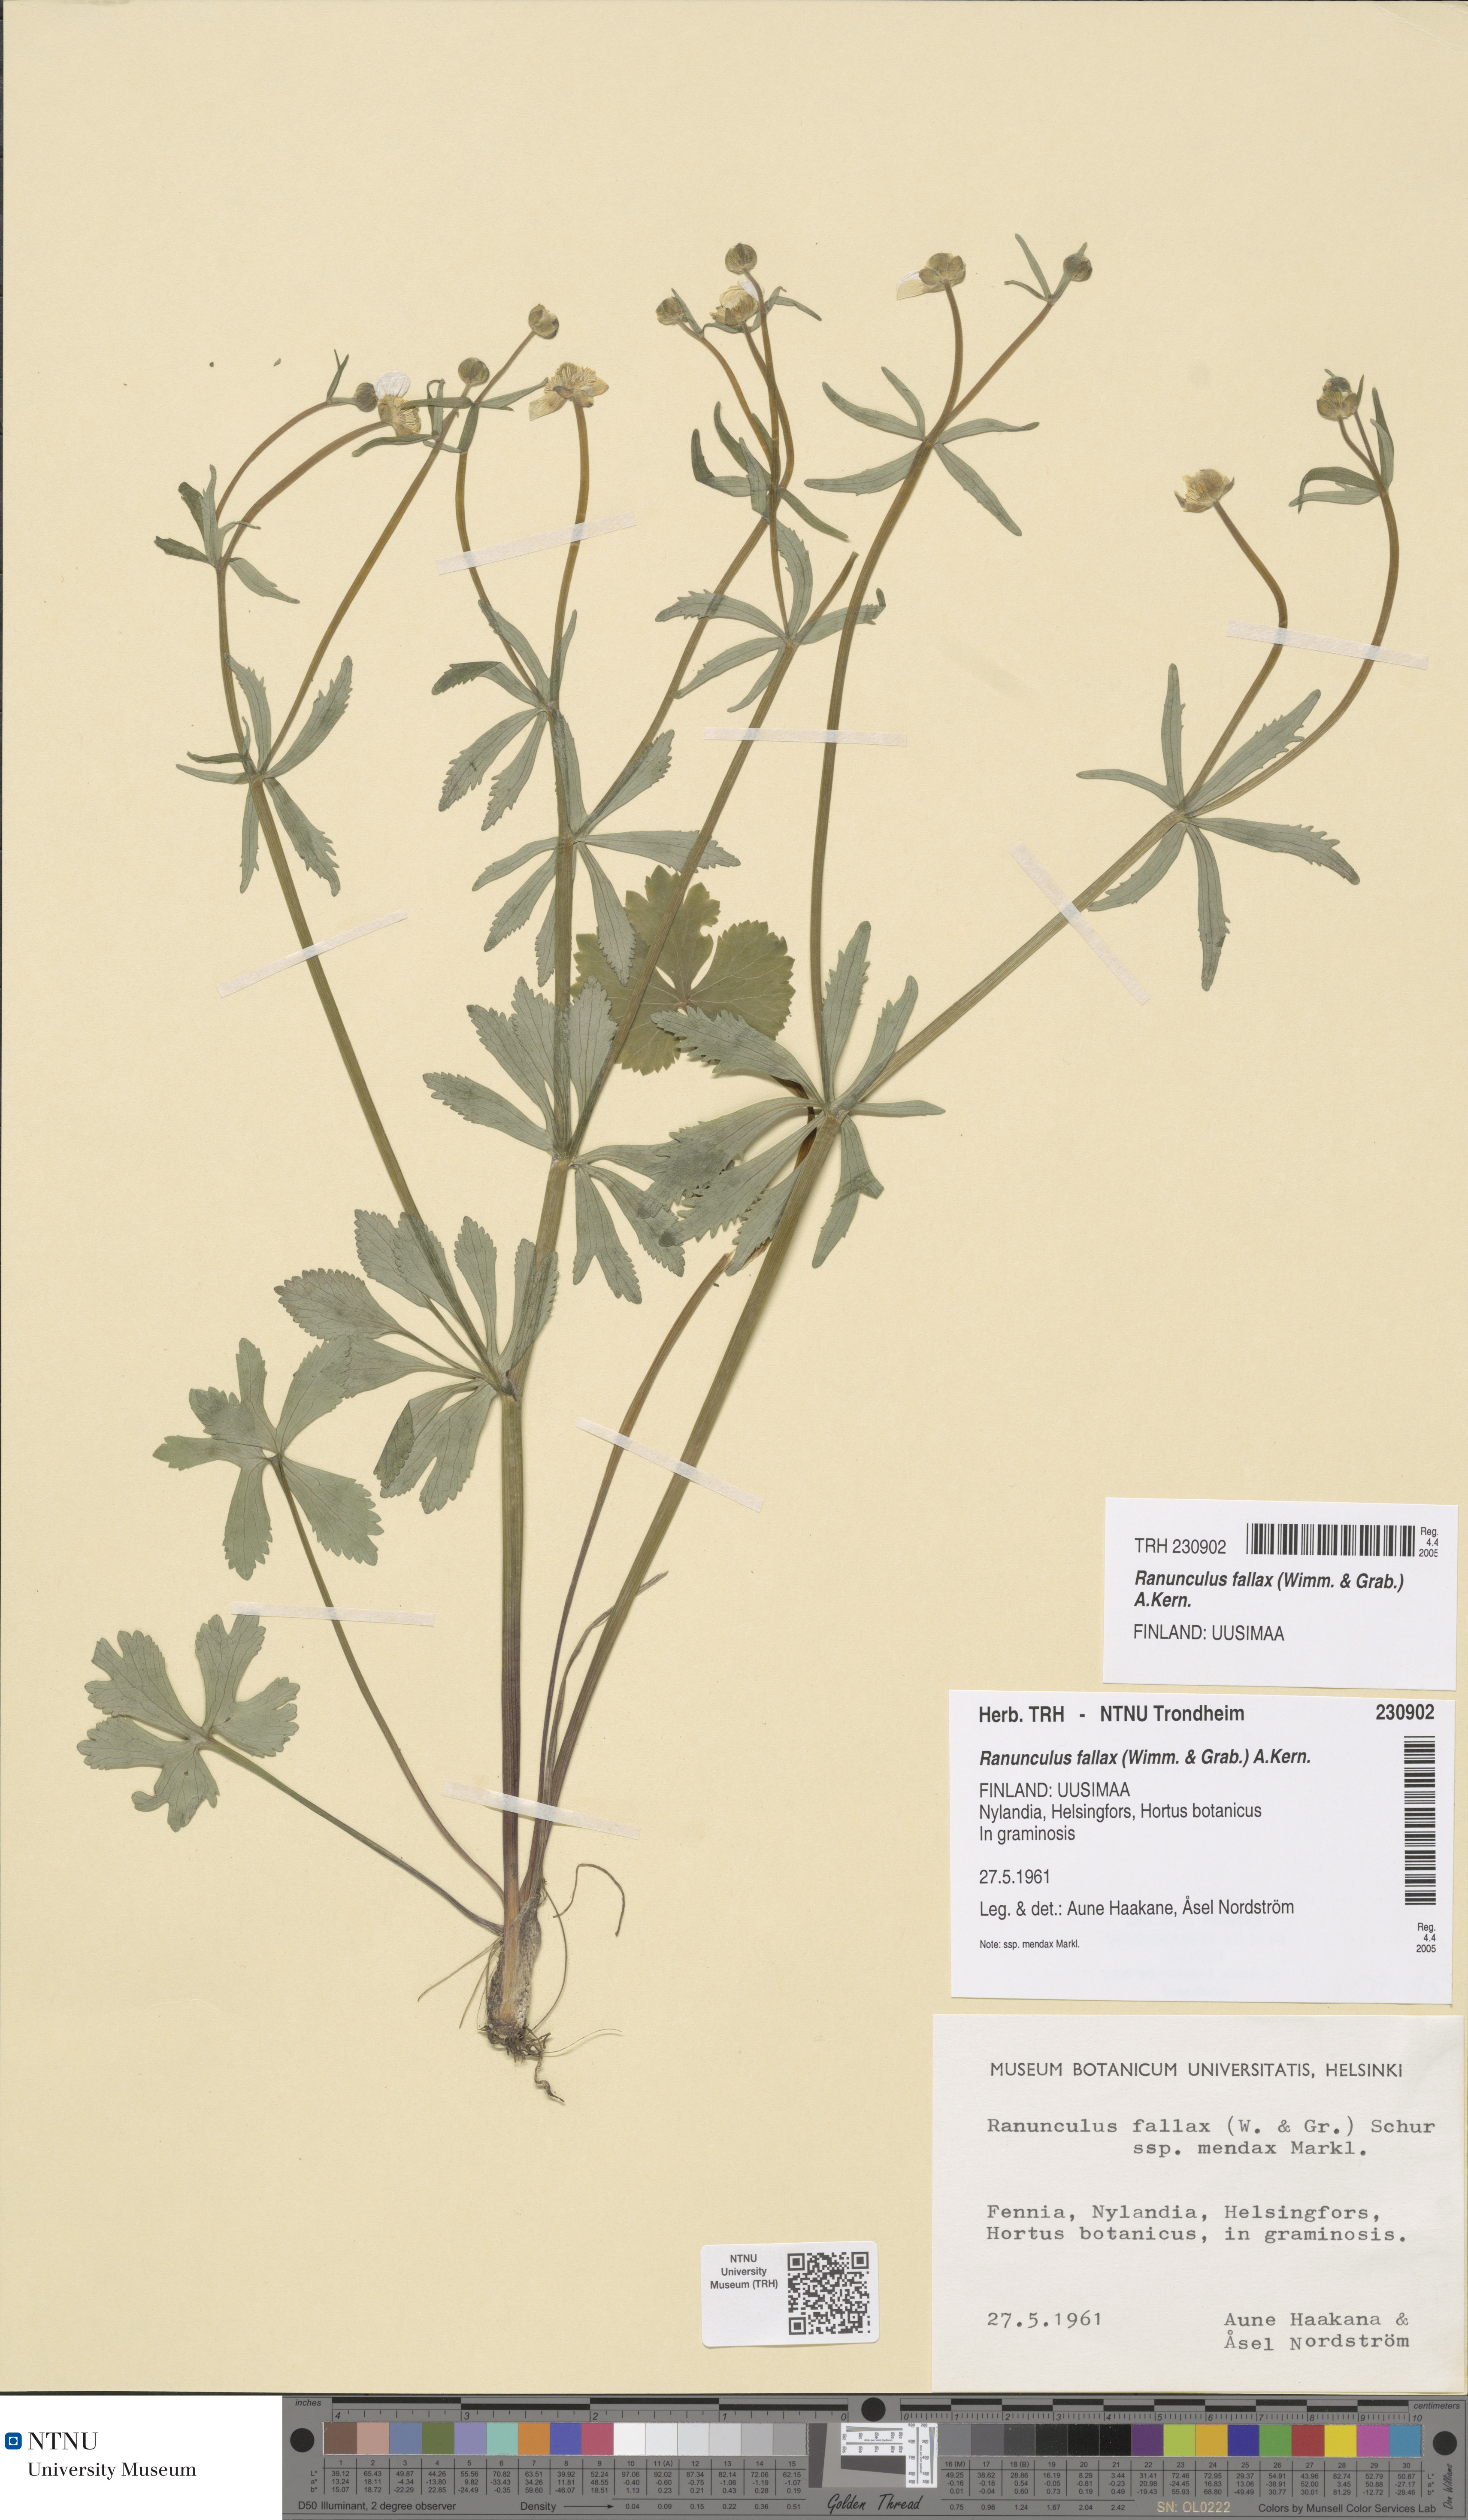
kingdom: Plantae
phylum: Tracheophyta
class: Magnoliopsida
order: Ranunculales
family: Ranunculaceae
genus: Ranunculus
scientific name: Ranunculus fallax
